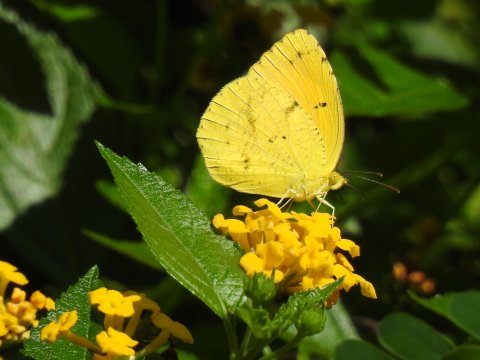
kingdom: Animalia
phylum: Arthropoda
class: Insecta
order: Lepidoptera
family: Pieridae
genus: Abaeis
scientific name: Abaeis nicippe
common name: Sleepy Orange
